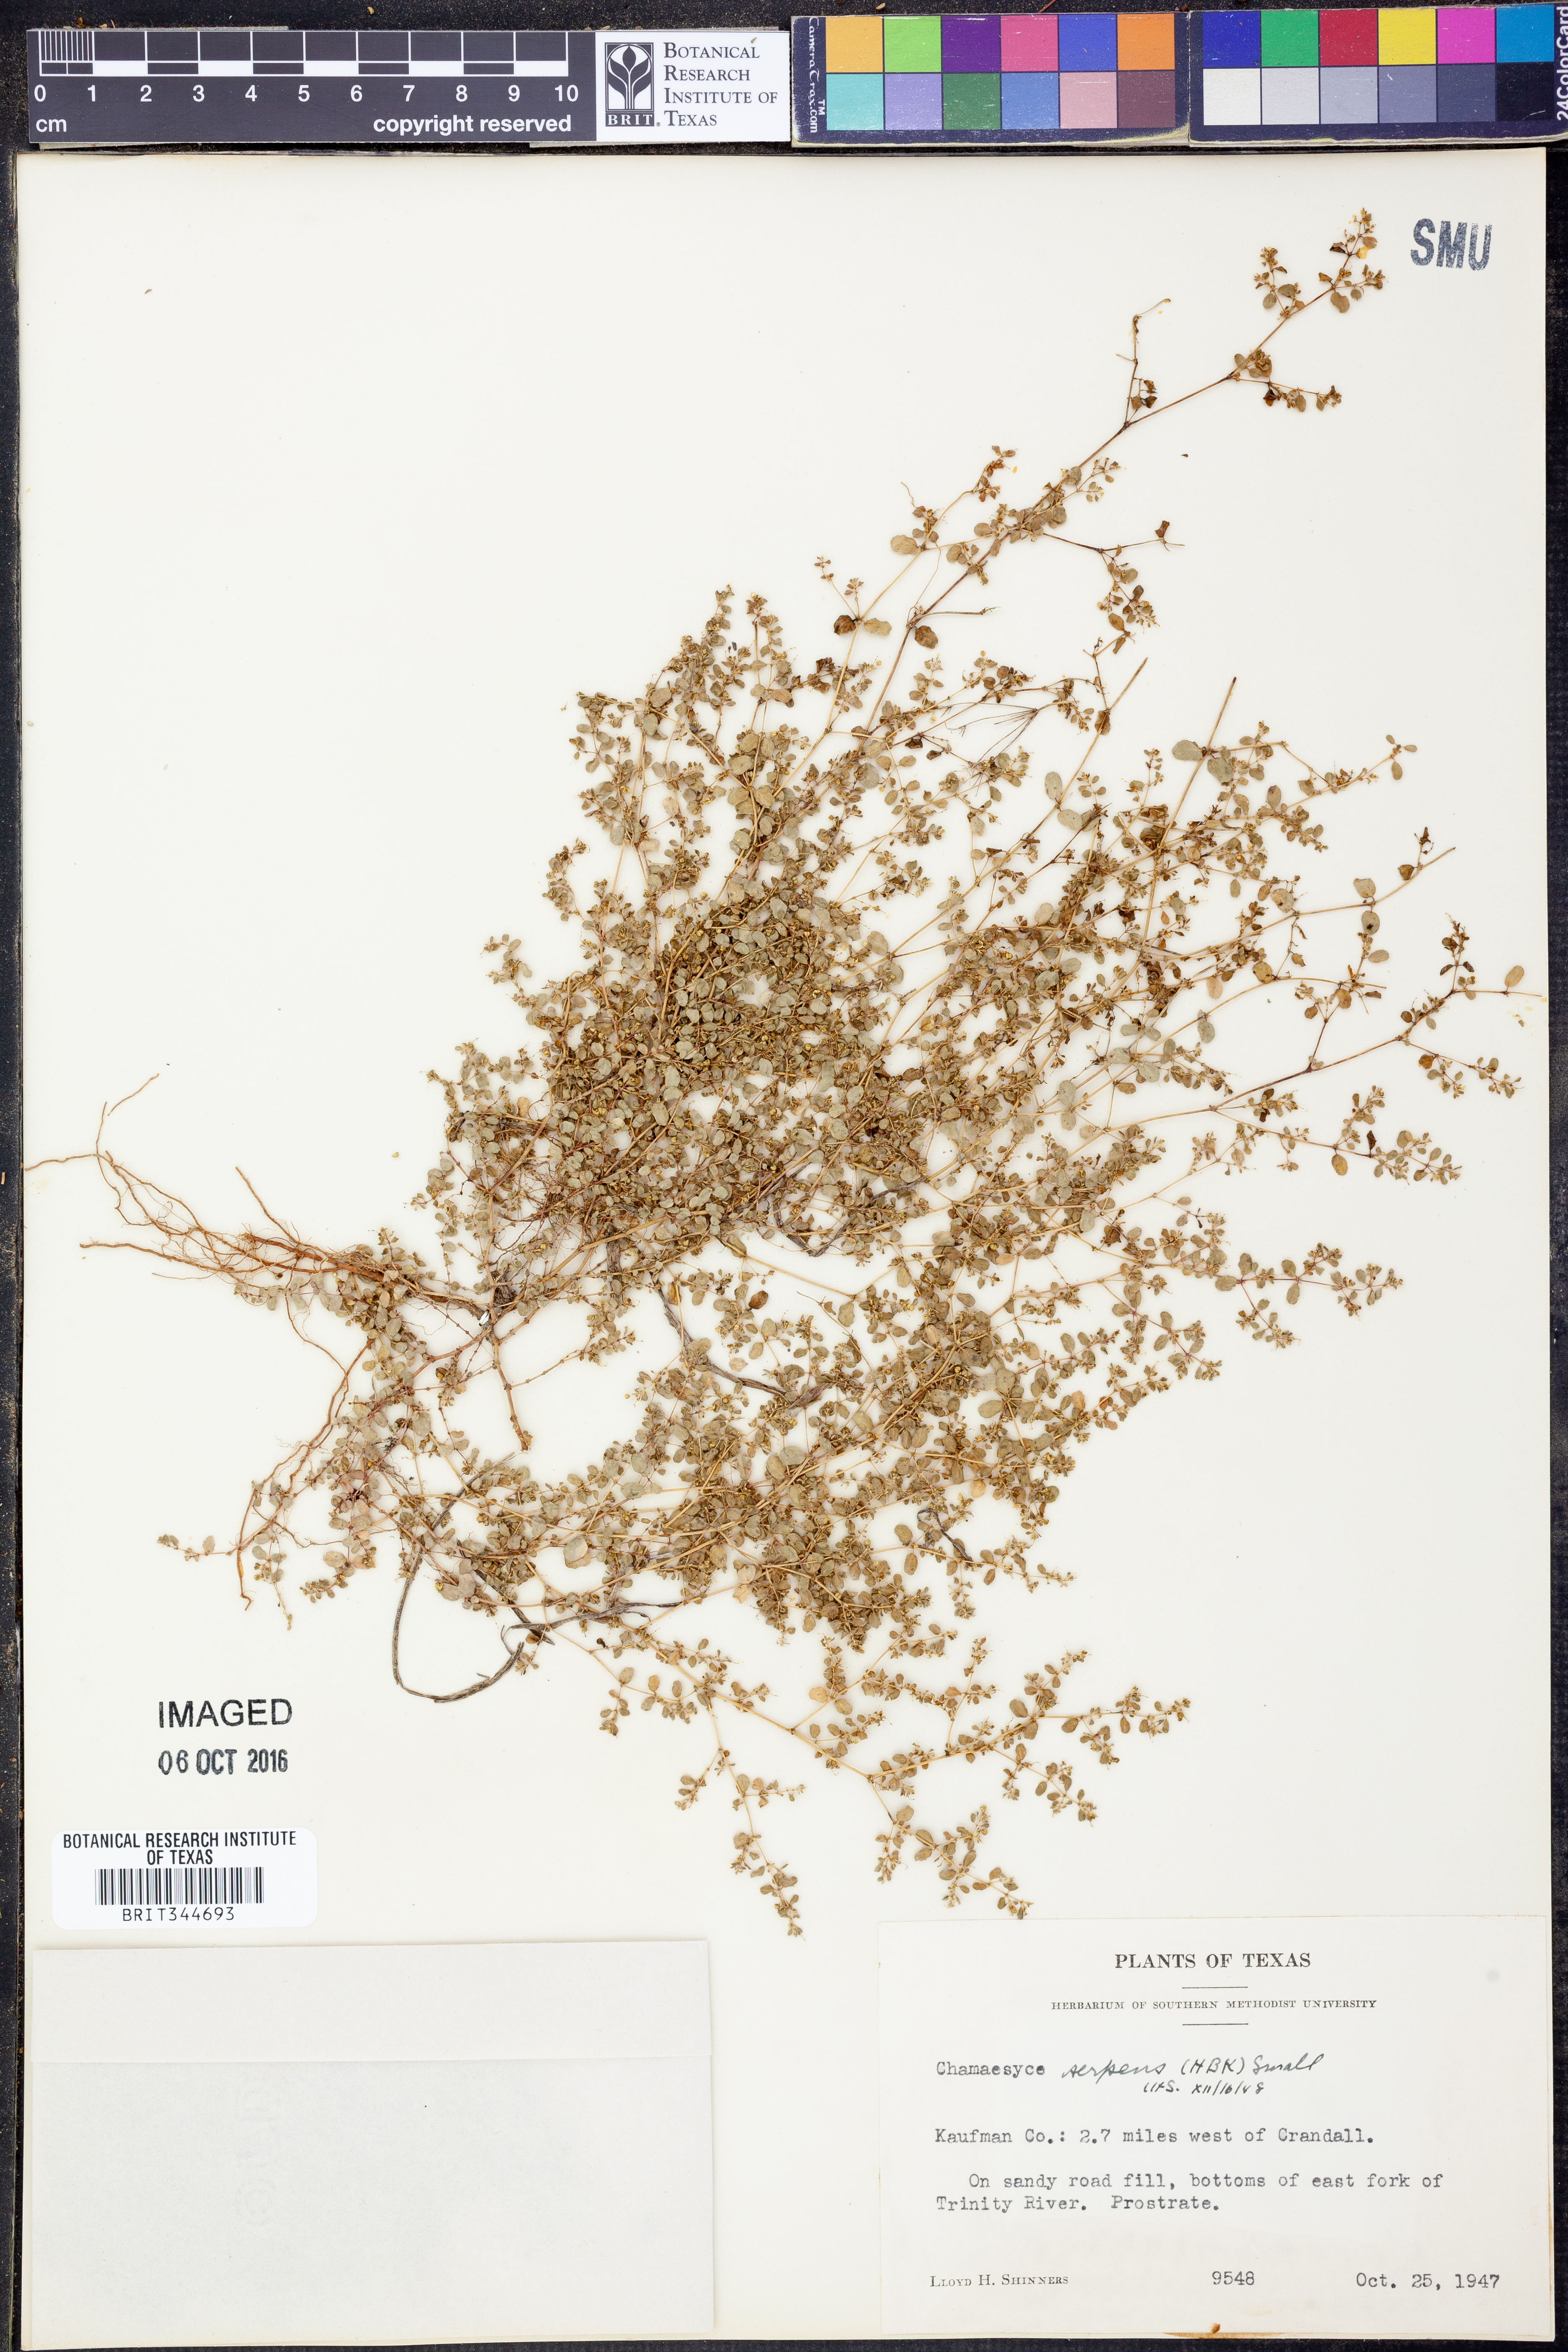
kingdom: Plantae
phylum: Tracheophyta
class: Magnoliopsida
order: Malpighiales
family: Euphorbiaceae
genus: Euphorbia
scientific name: Euphorbia serpens
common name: Matted sandmat
